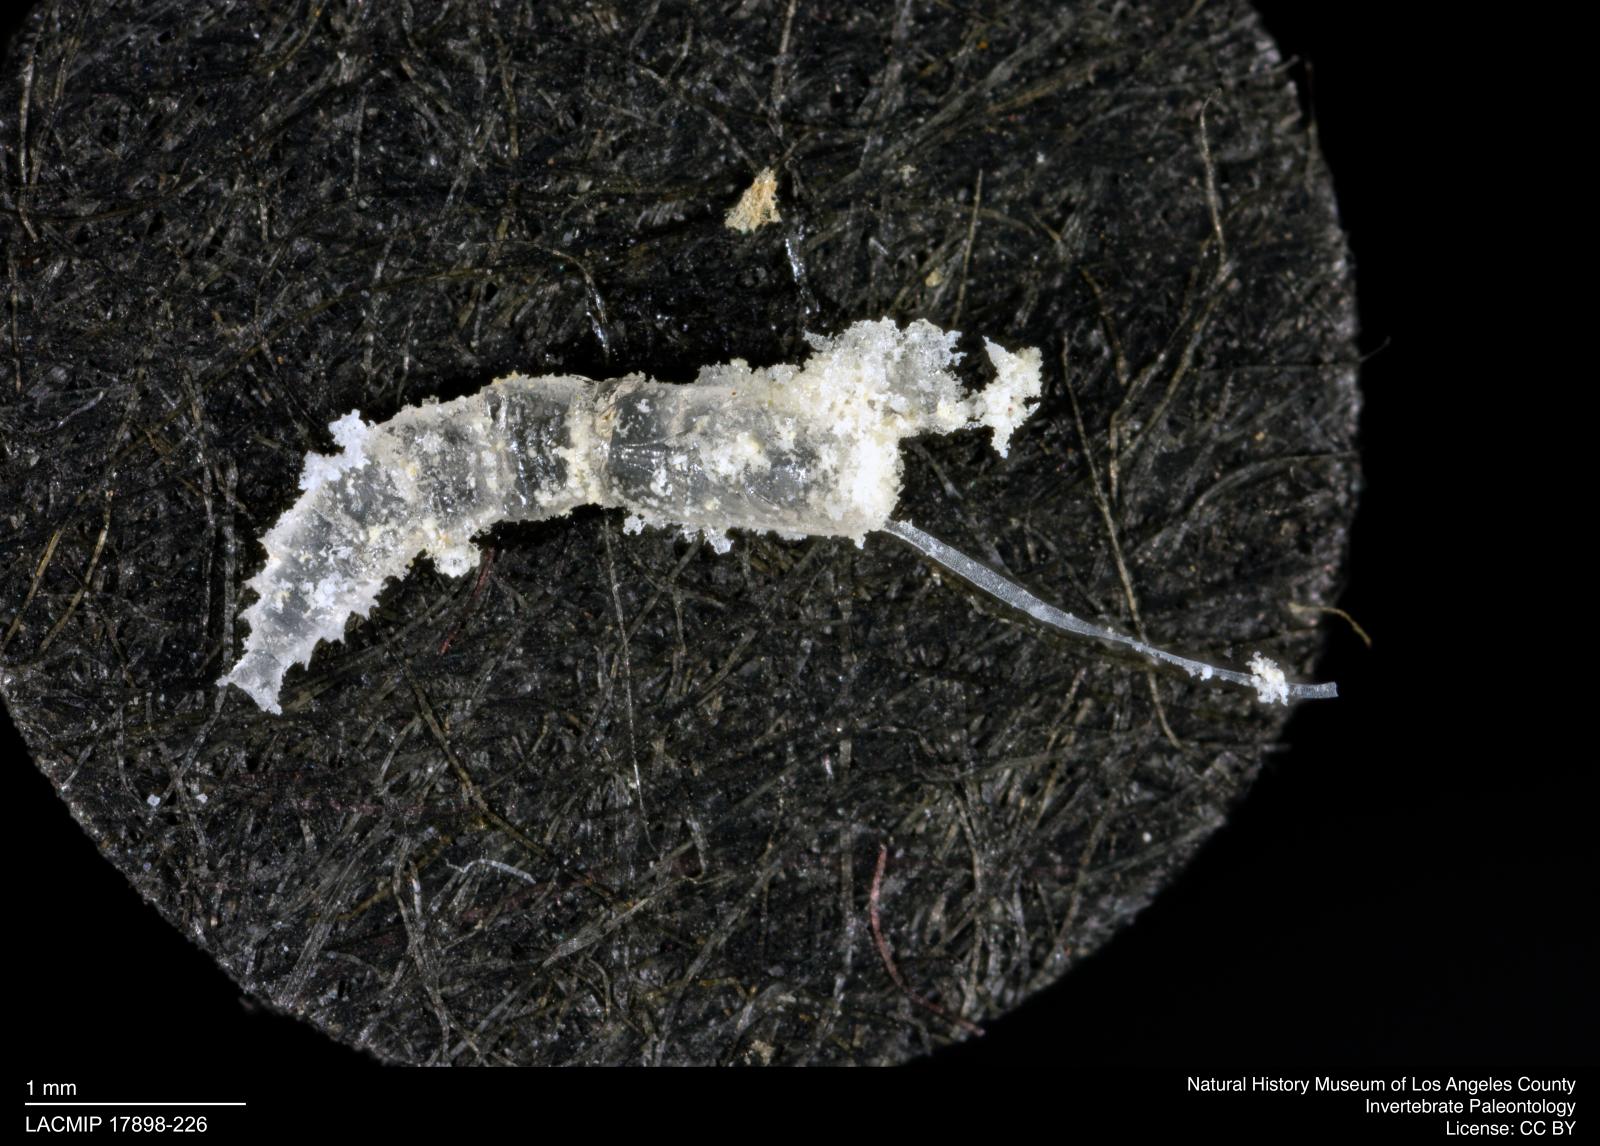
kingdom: Animalia
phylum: Arthropoda
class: Insecta
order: Diptera
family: Ceratopogonidae
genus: Dasyhelea
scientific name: Dasyhelea
